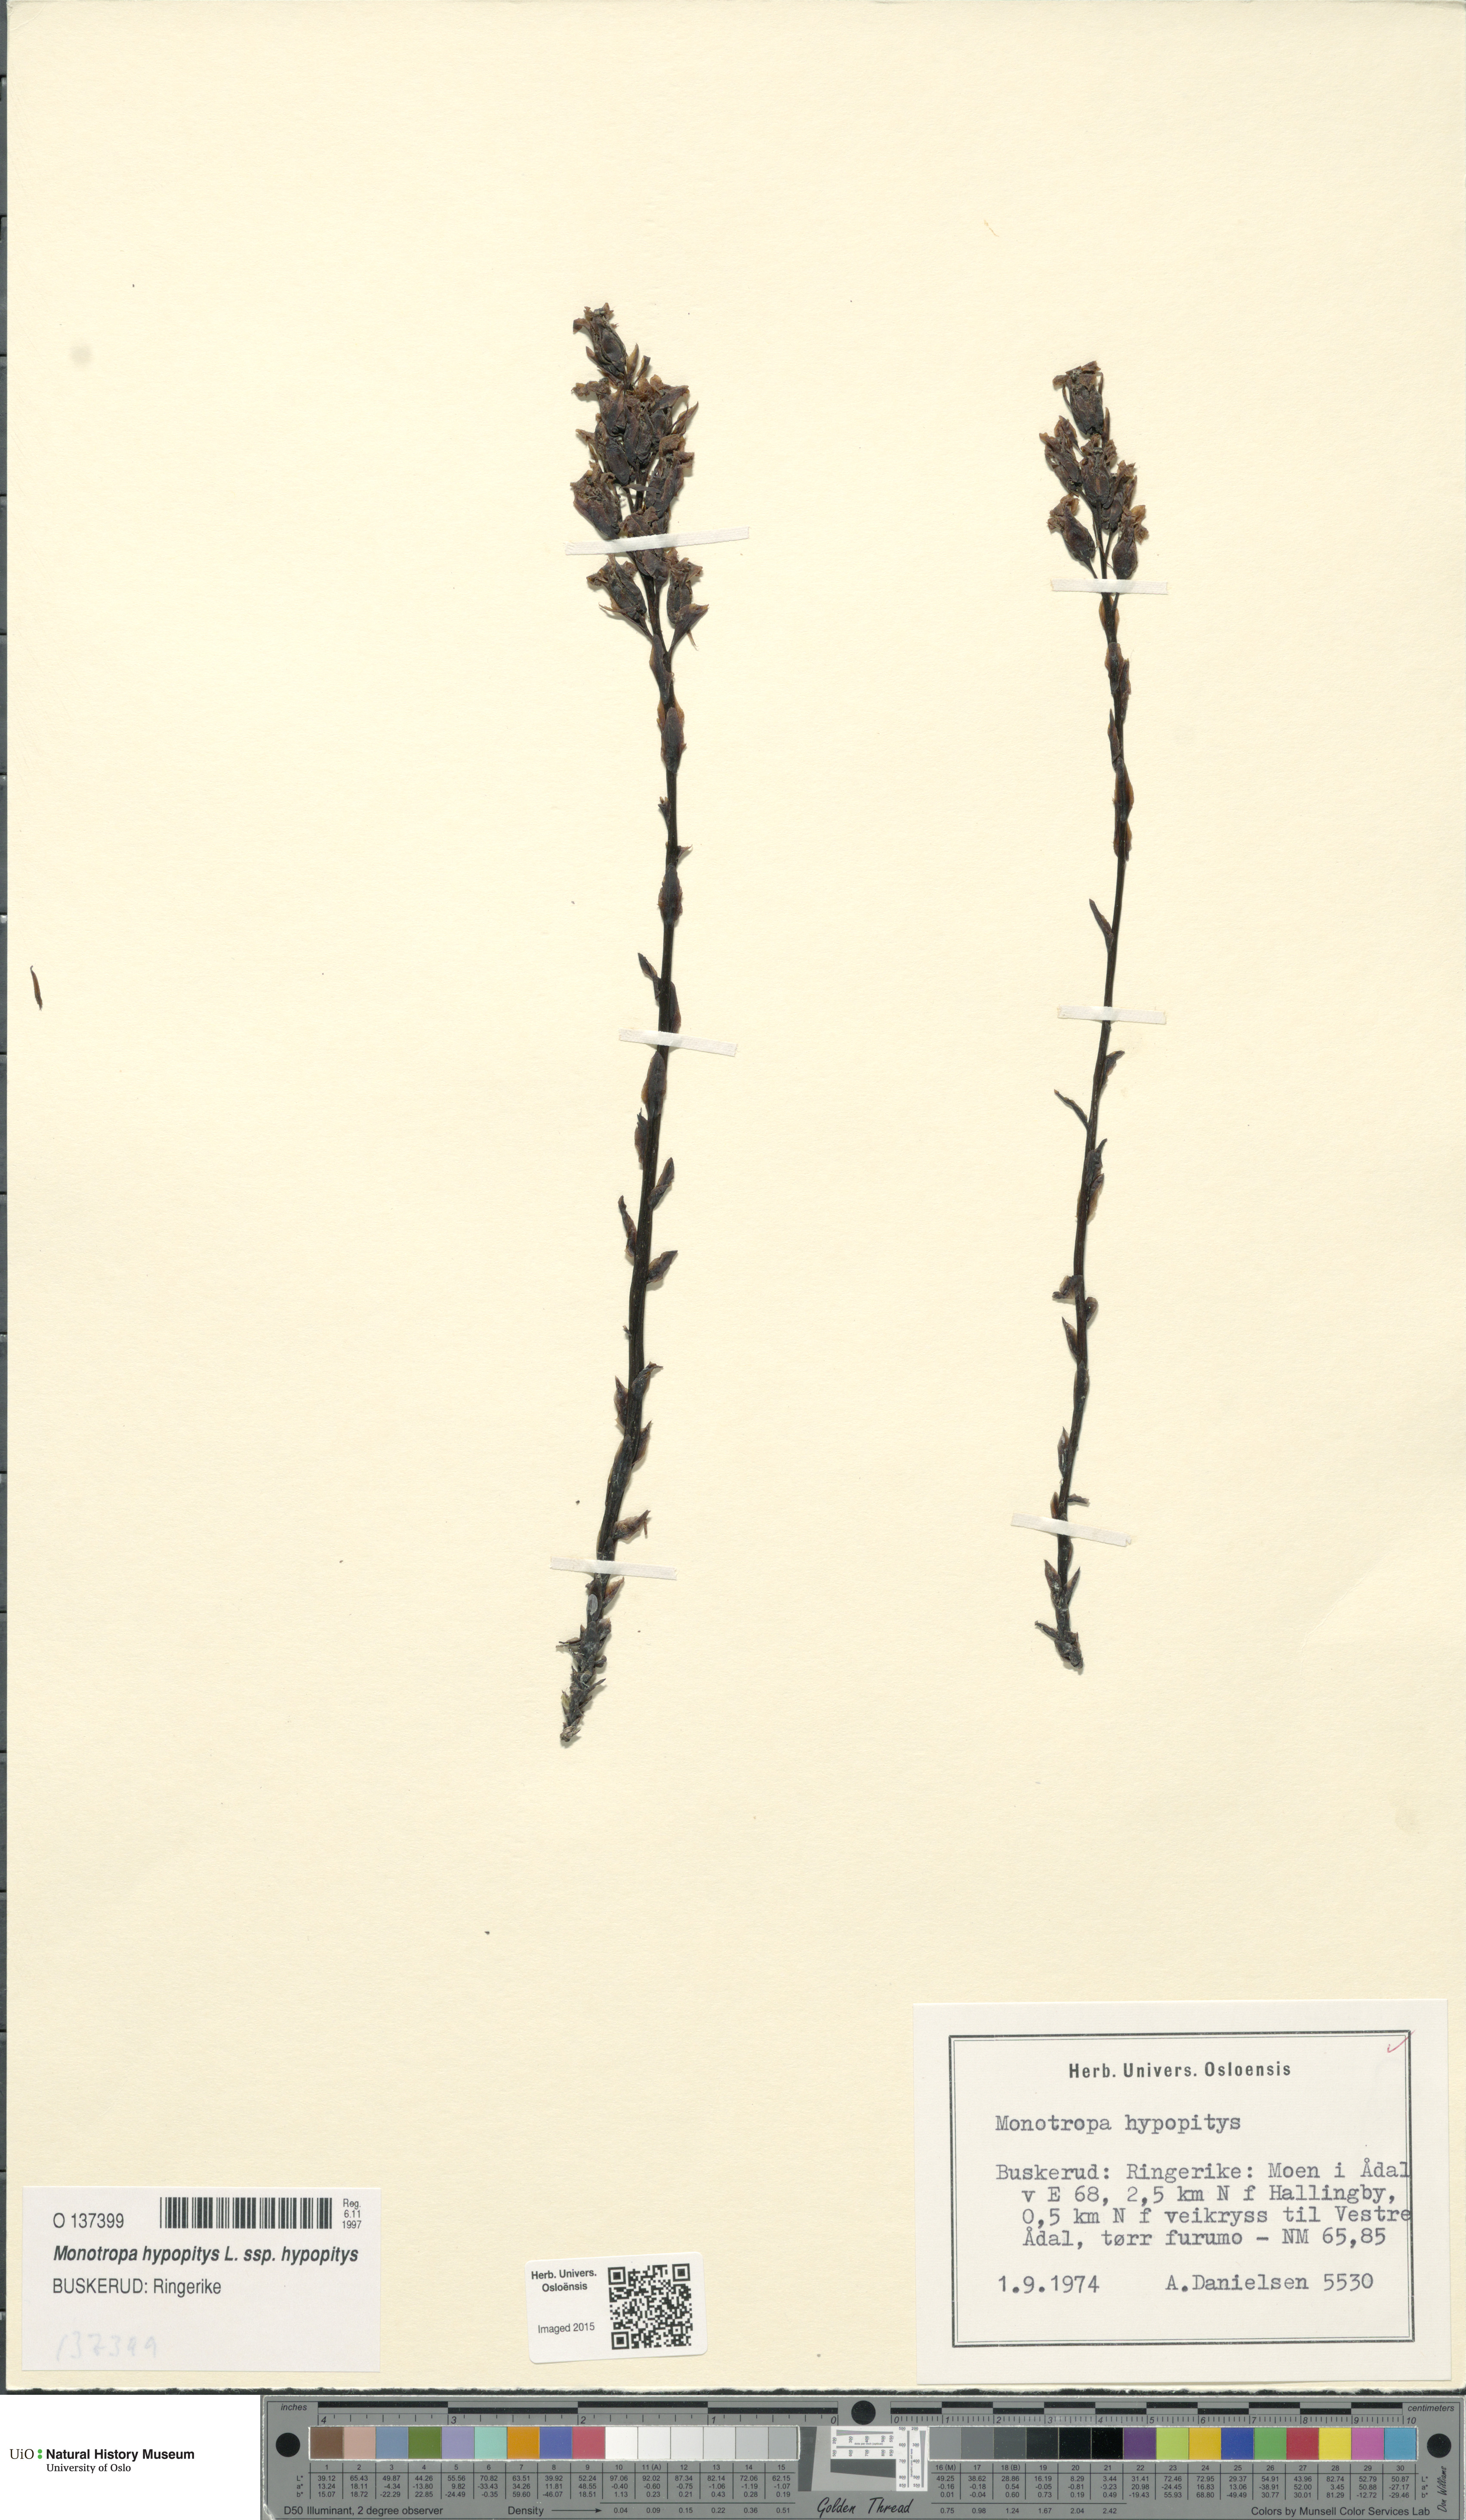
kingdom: Plantae
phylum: Tracheophyta
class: Magnoliopsida
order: Ericales
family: Ericaceae
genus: Hypopitys
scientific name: Hypopitys monotropa
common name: Yellow bird's-nest
